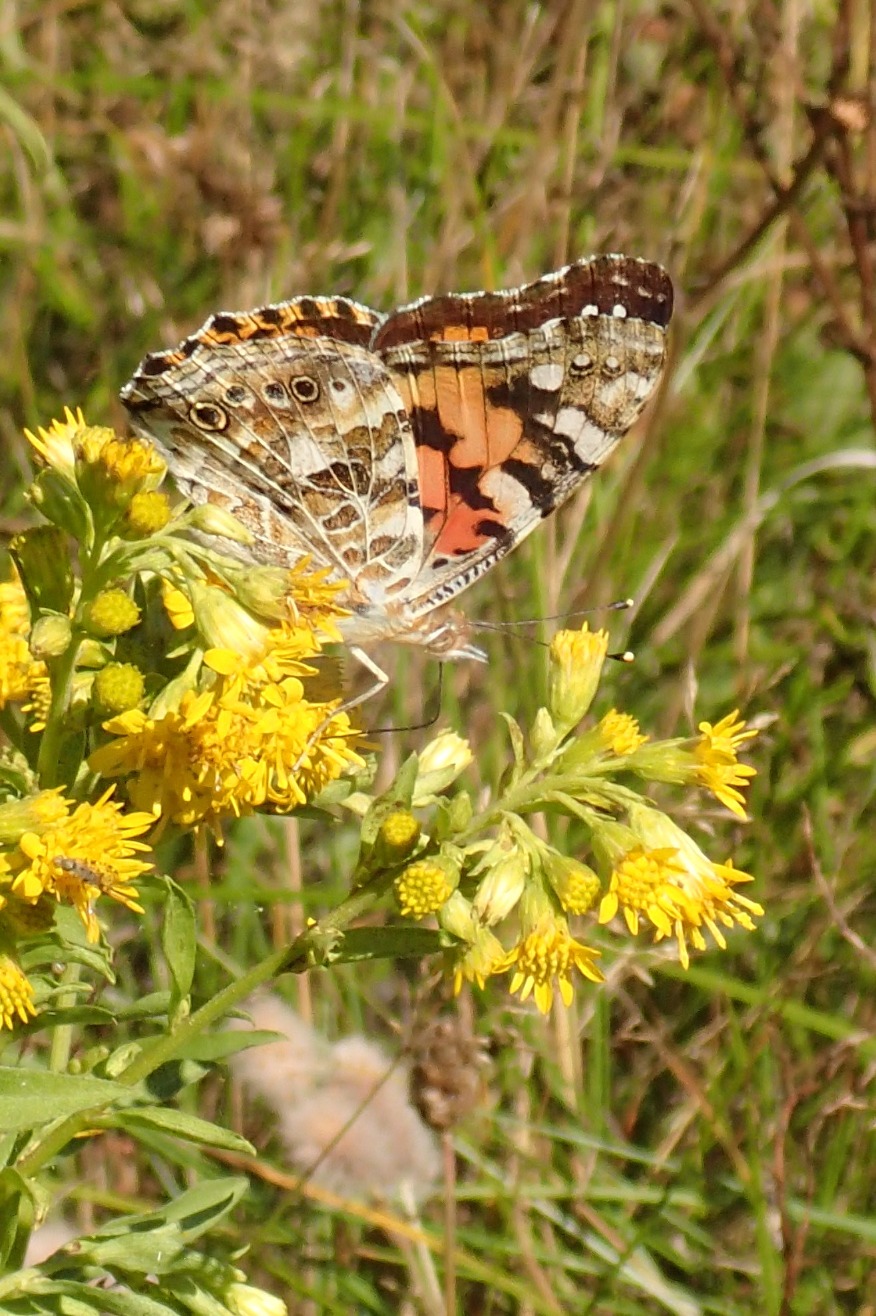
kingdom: Animalia
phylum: Arthropoda
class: Insecta
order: Lepidoptera
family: Nymphalidae
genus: Vanessa
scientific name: Vanessa cardui
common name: Tidselsommerfugl
